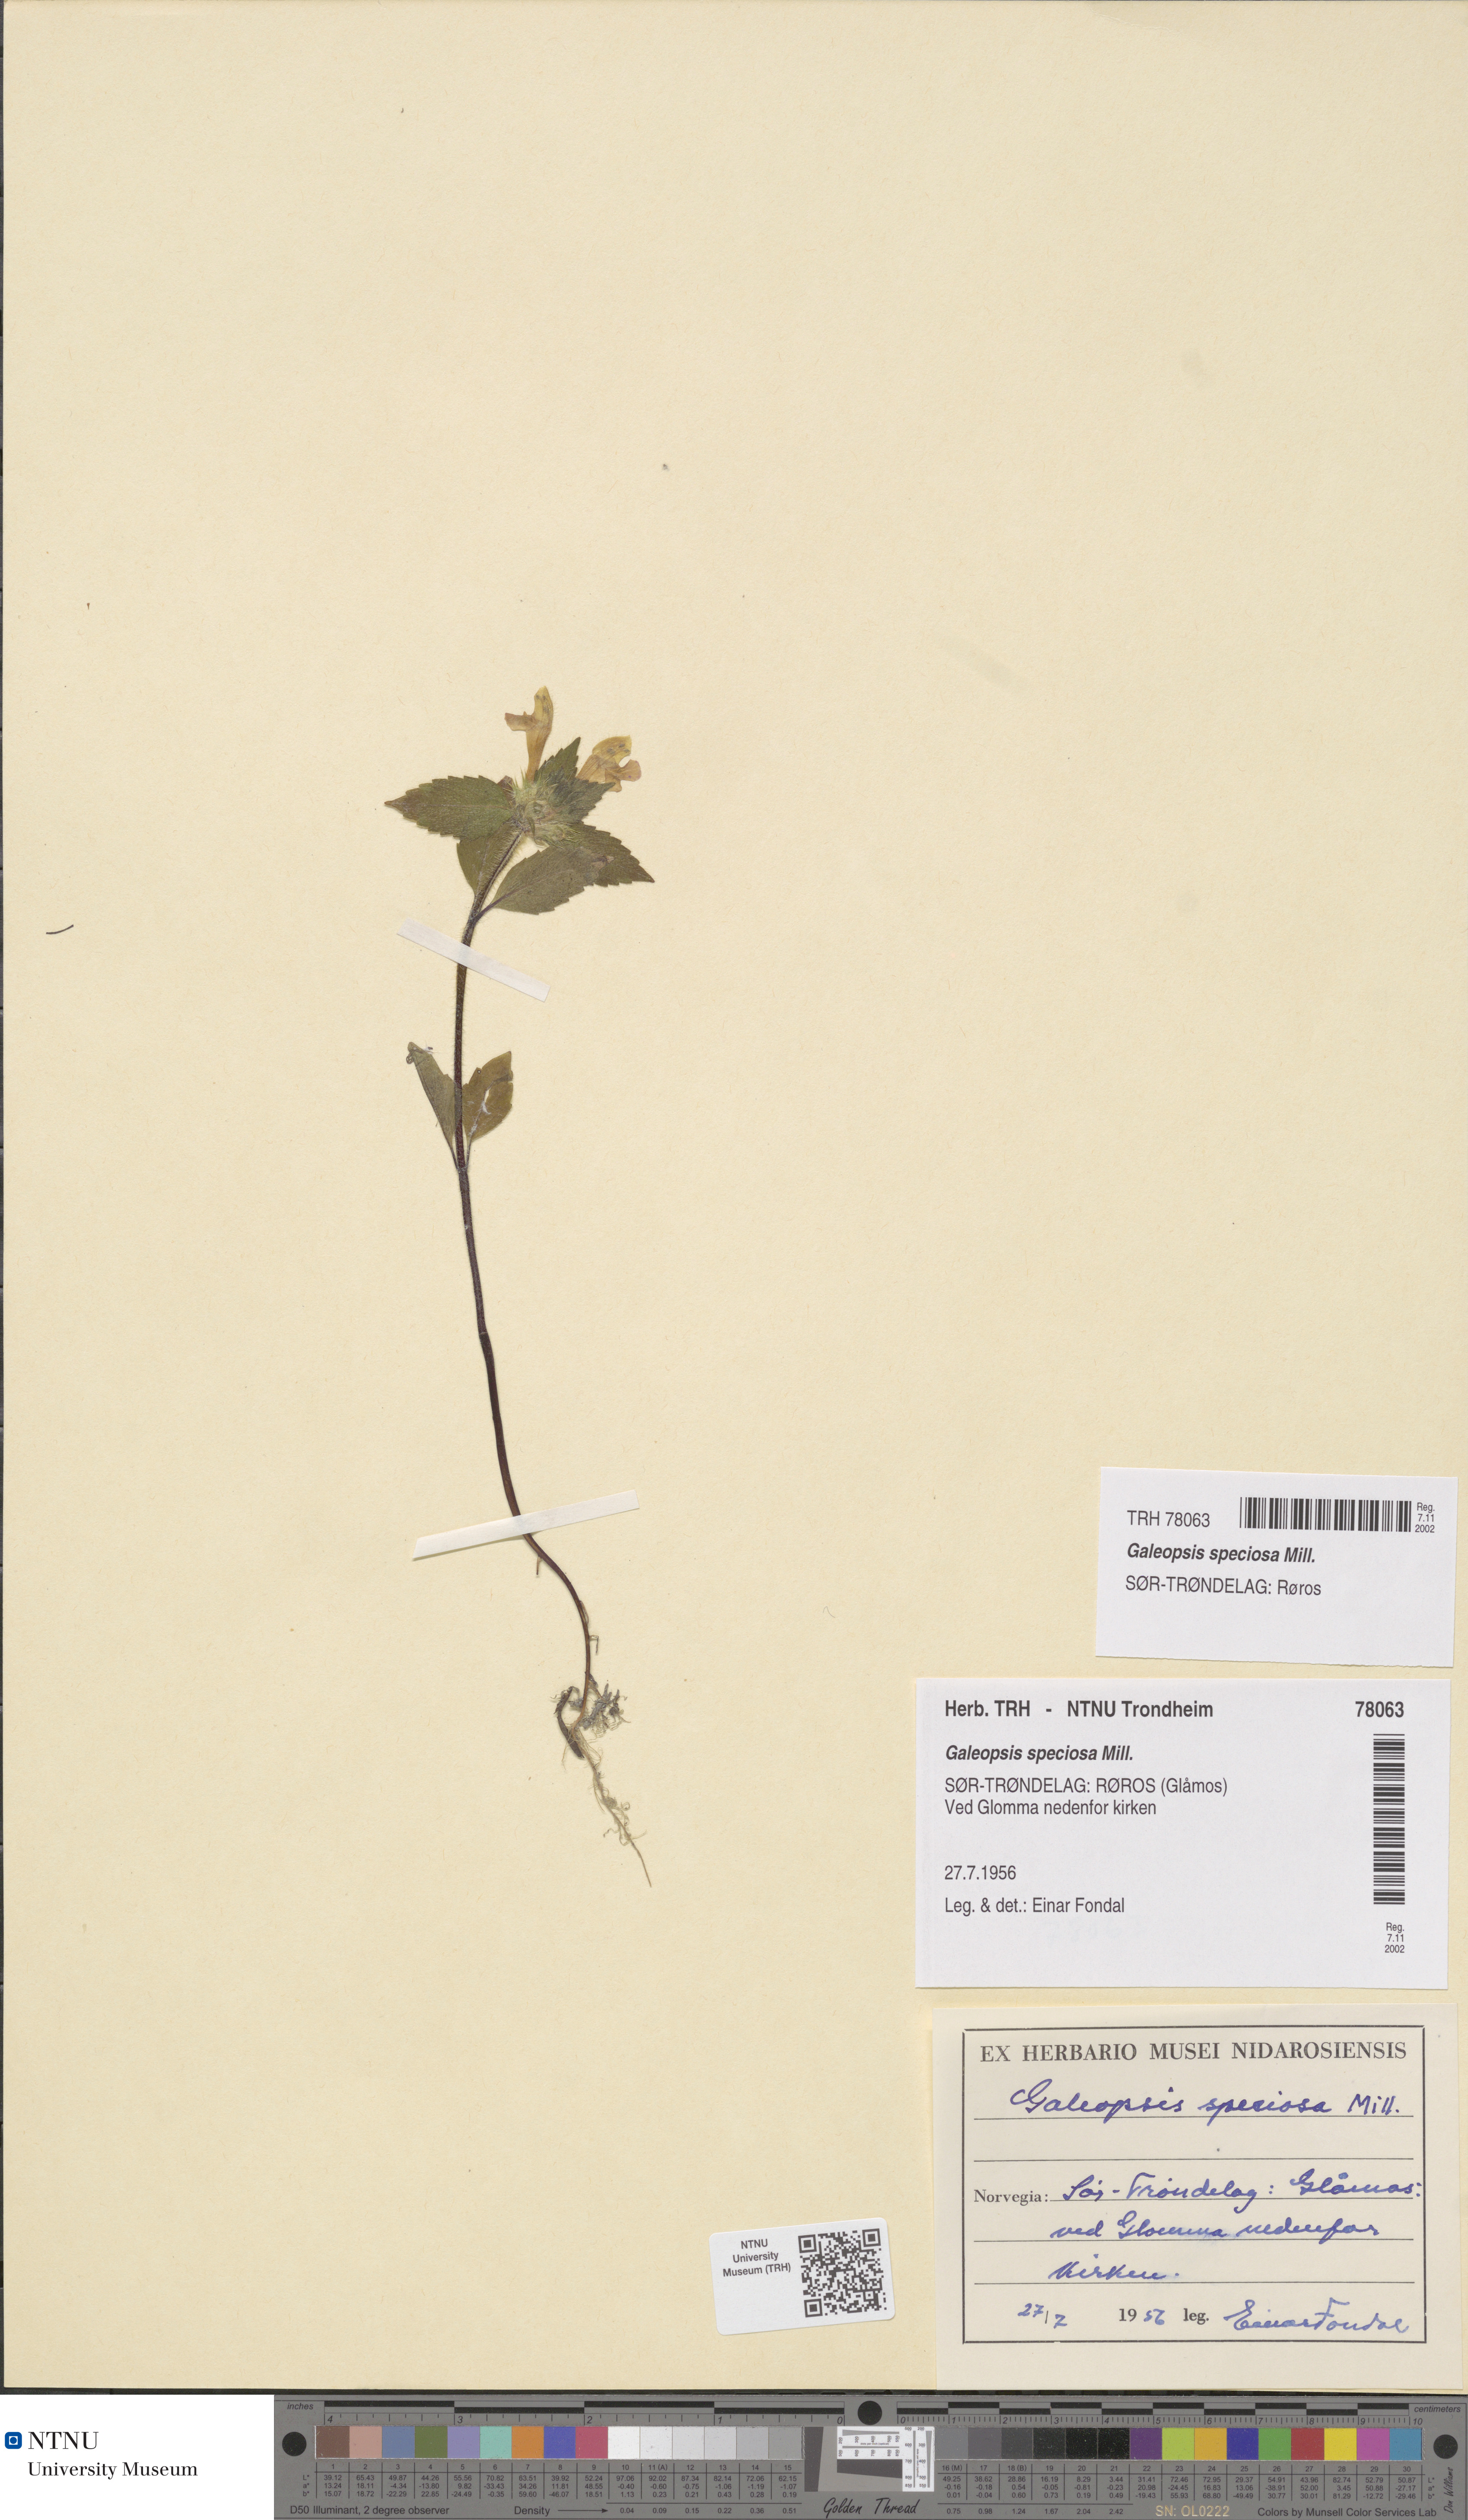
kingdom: Plantae
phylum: Tracheophyta
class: Magnoliopsida
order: Lamiales
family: Lamiaceae
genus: Galeopsis
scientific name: Galeopsis speciosa
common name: Large-flowered hemp-nettle
